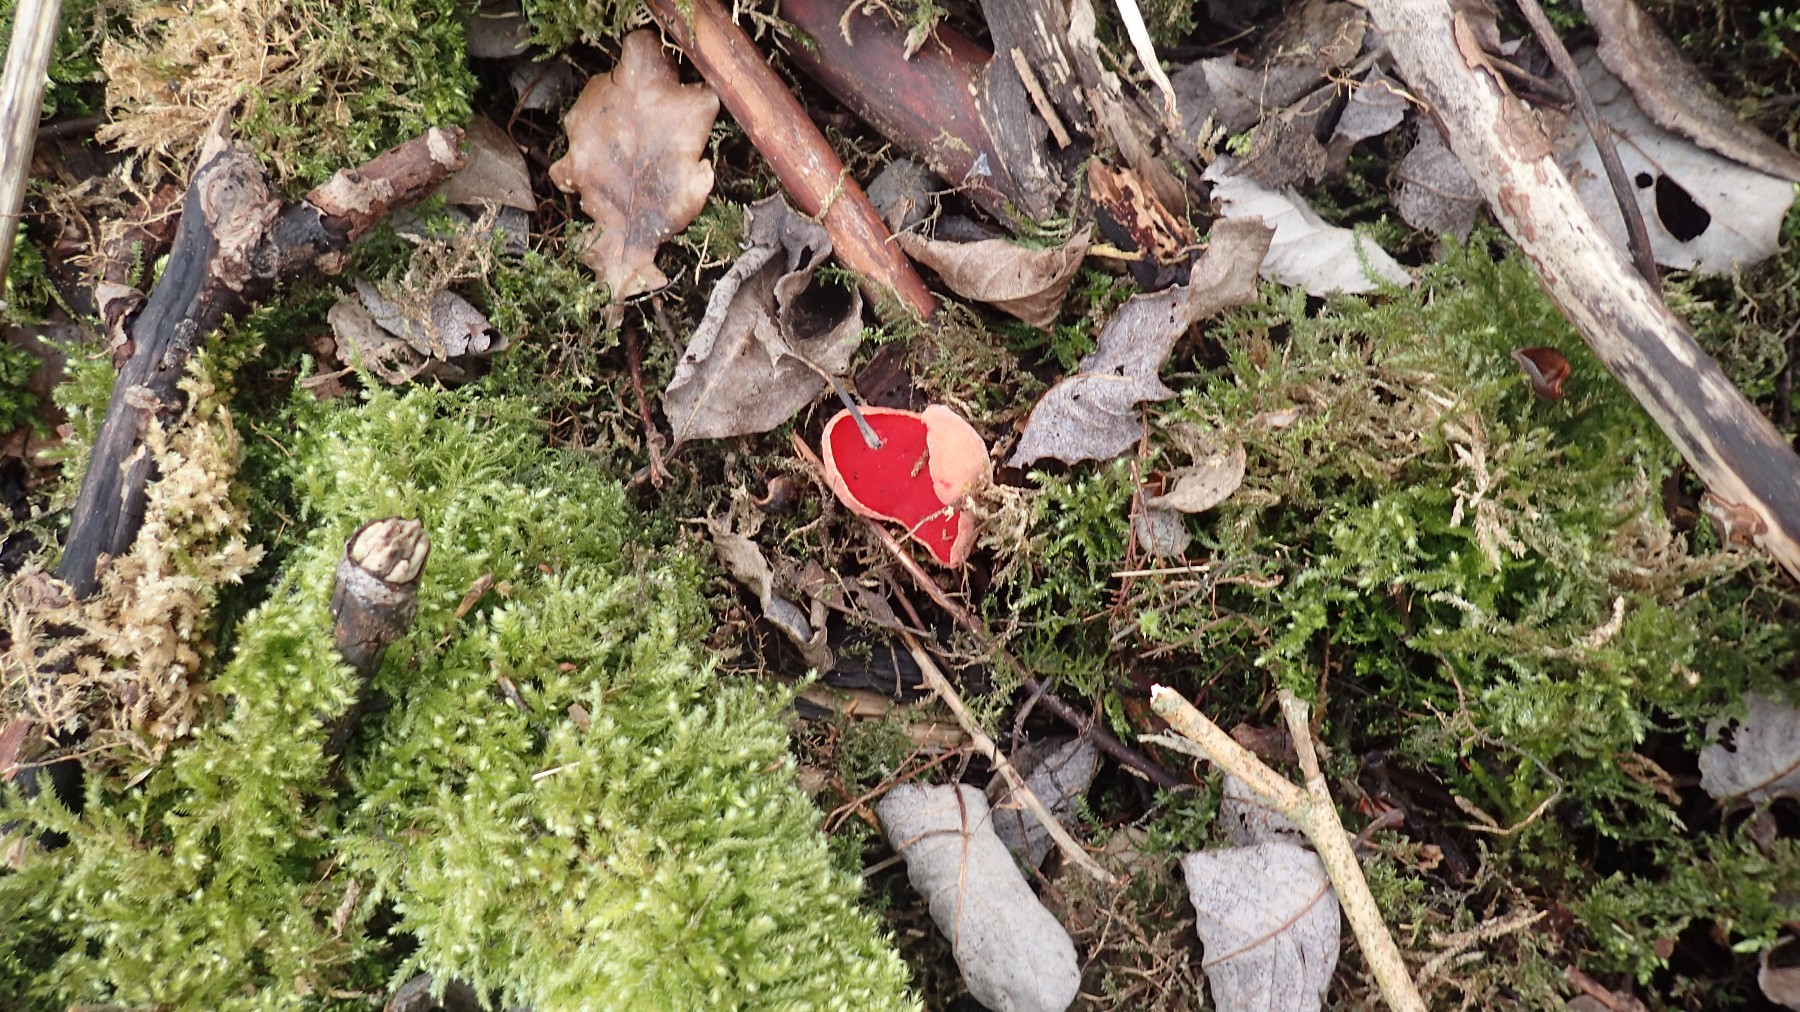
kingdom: Fungi
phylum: Ascomycota
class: Pezizomycetes
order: Pezizales
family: Sarcoscyphaceae
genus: Sarcoscypha
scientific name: Sarcoscypha austriaca
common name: krølhåret pragtbæger
